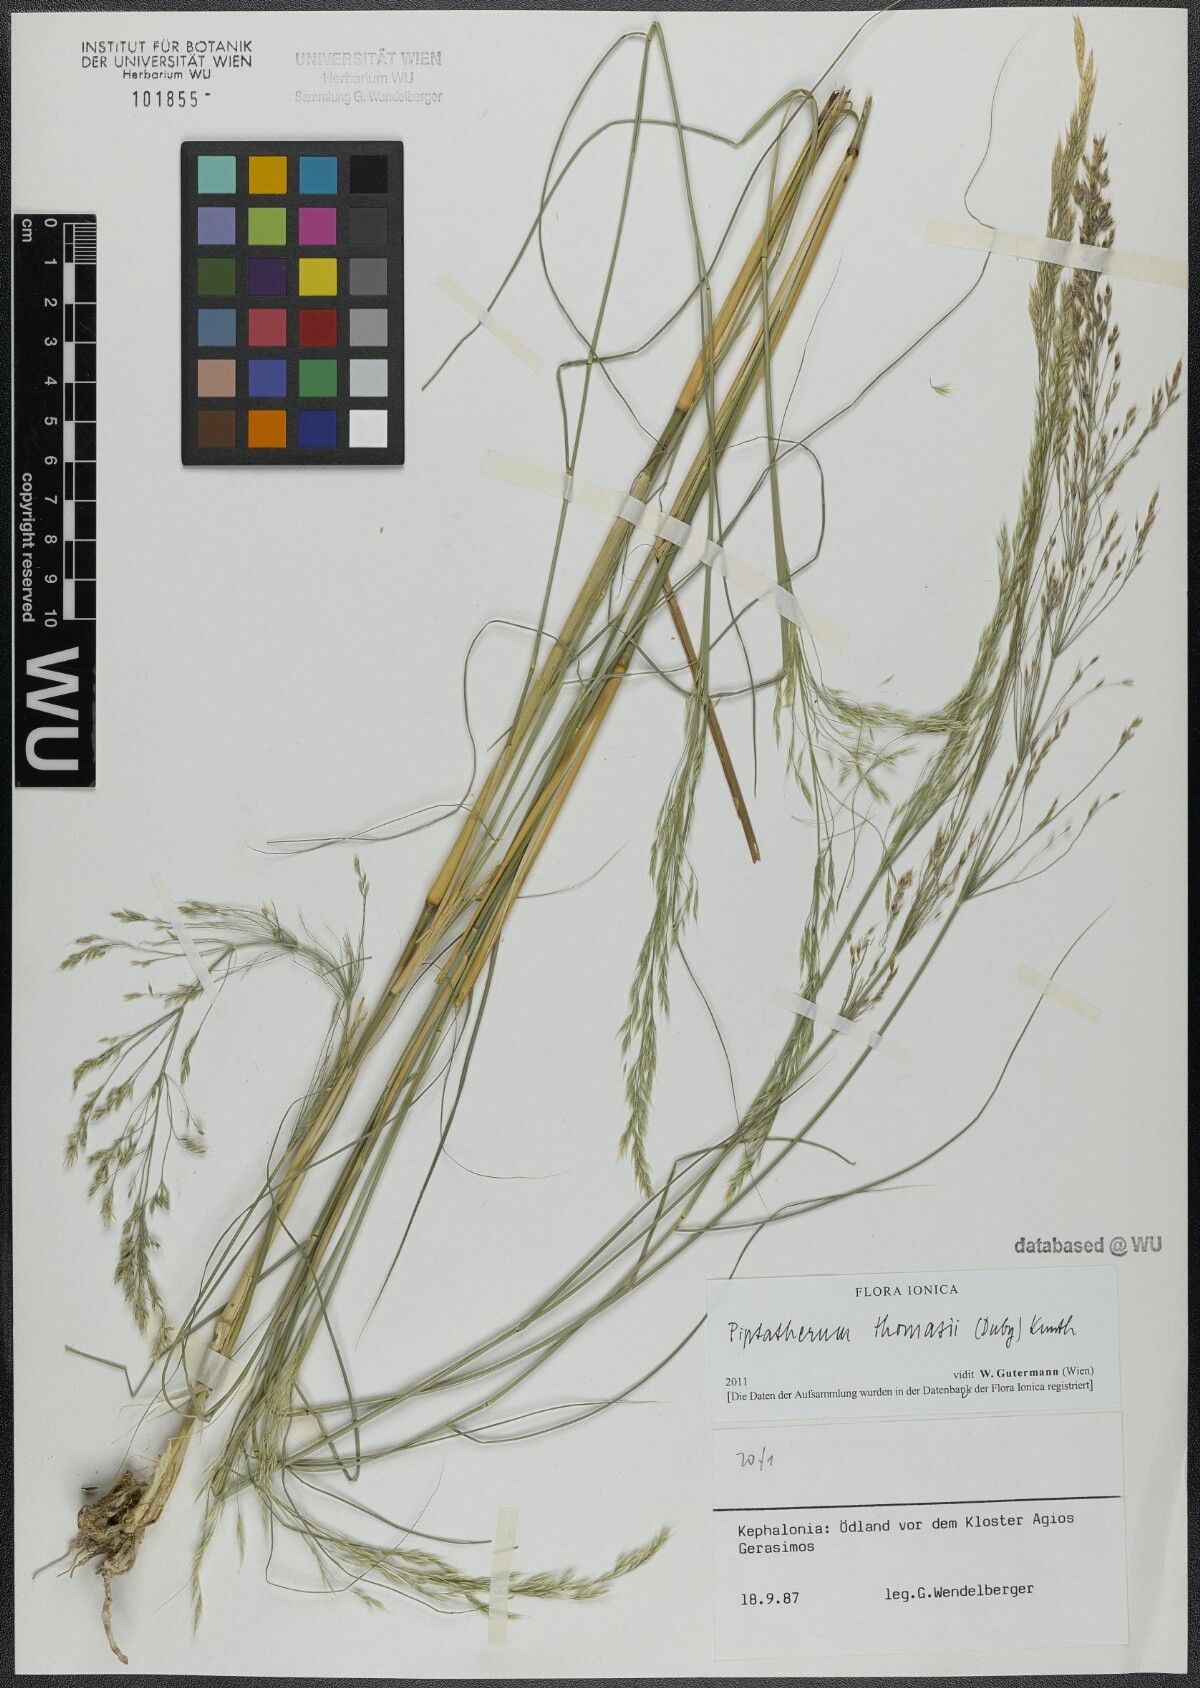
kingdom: Plantae
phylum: Tracheophyta
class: Liliopsida
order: Poales
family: Poaceae
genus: Oloptum
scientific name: Oloptum thomasii
